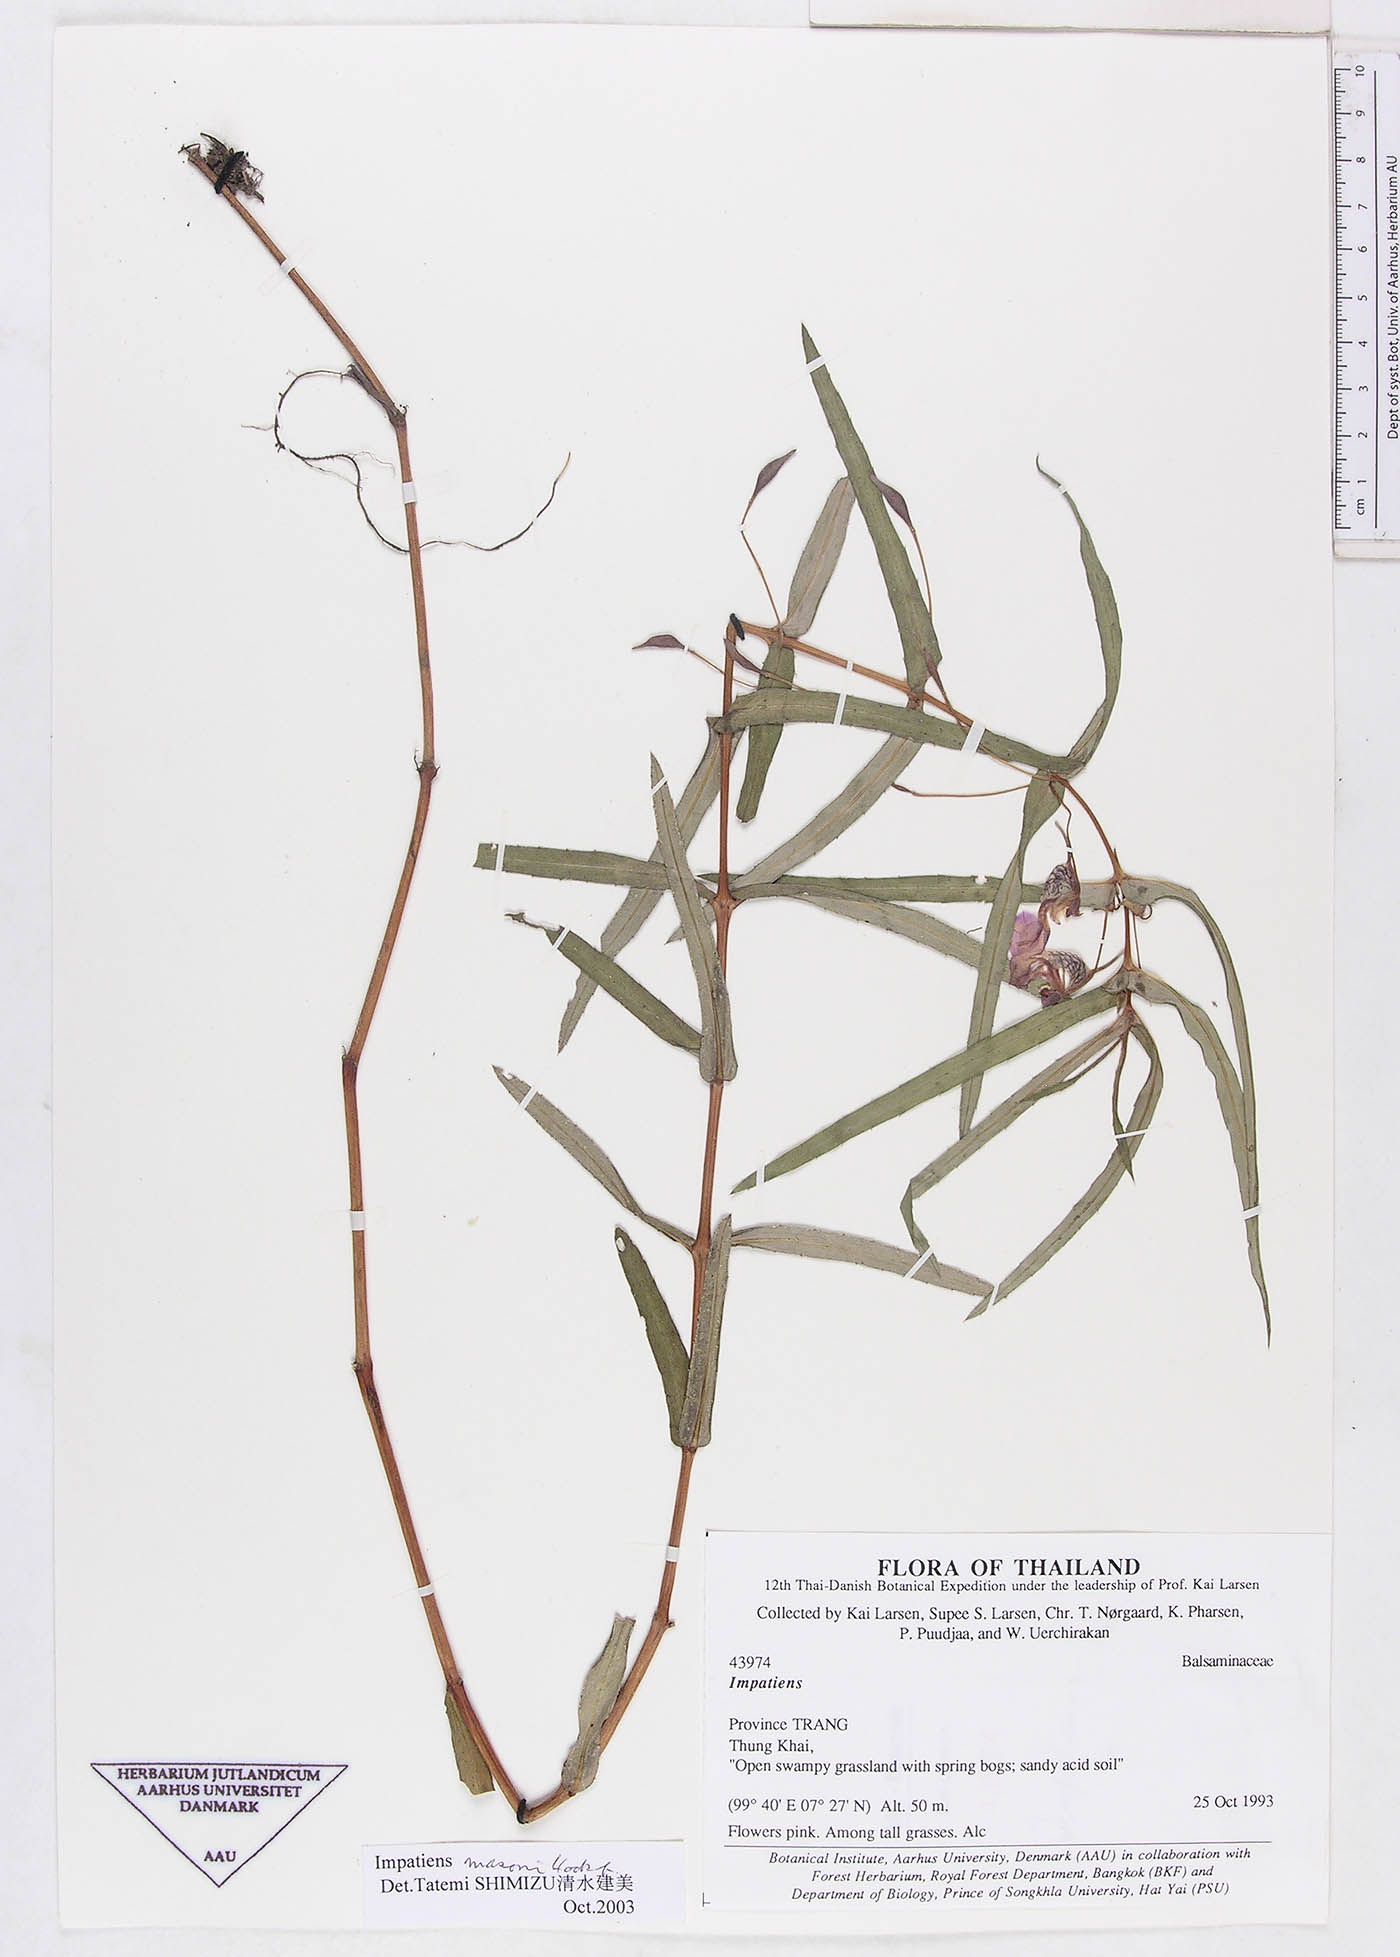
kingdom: Plantae
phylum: Tracheophyta
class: Magnoliopsida
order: Ericales
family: Balsaminaceae
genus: Impatiens
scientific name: Impatiens oppositifolia
